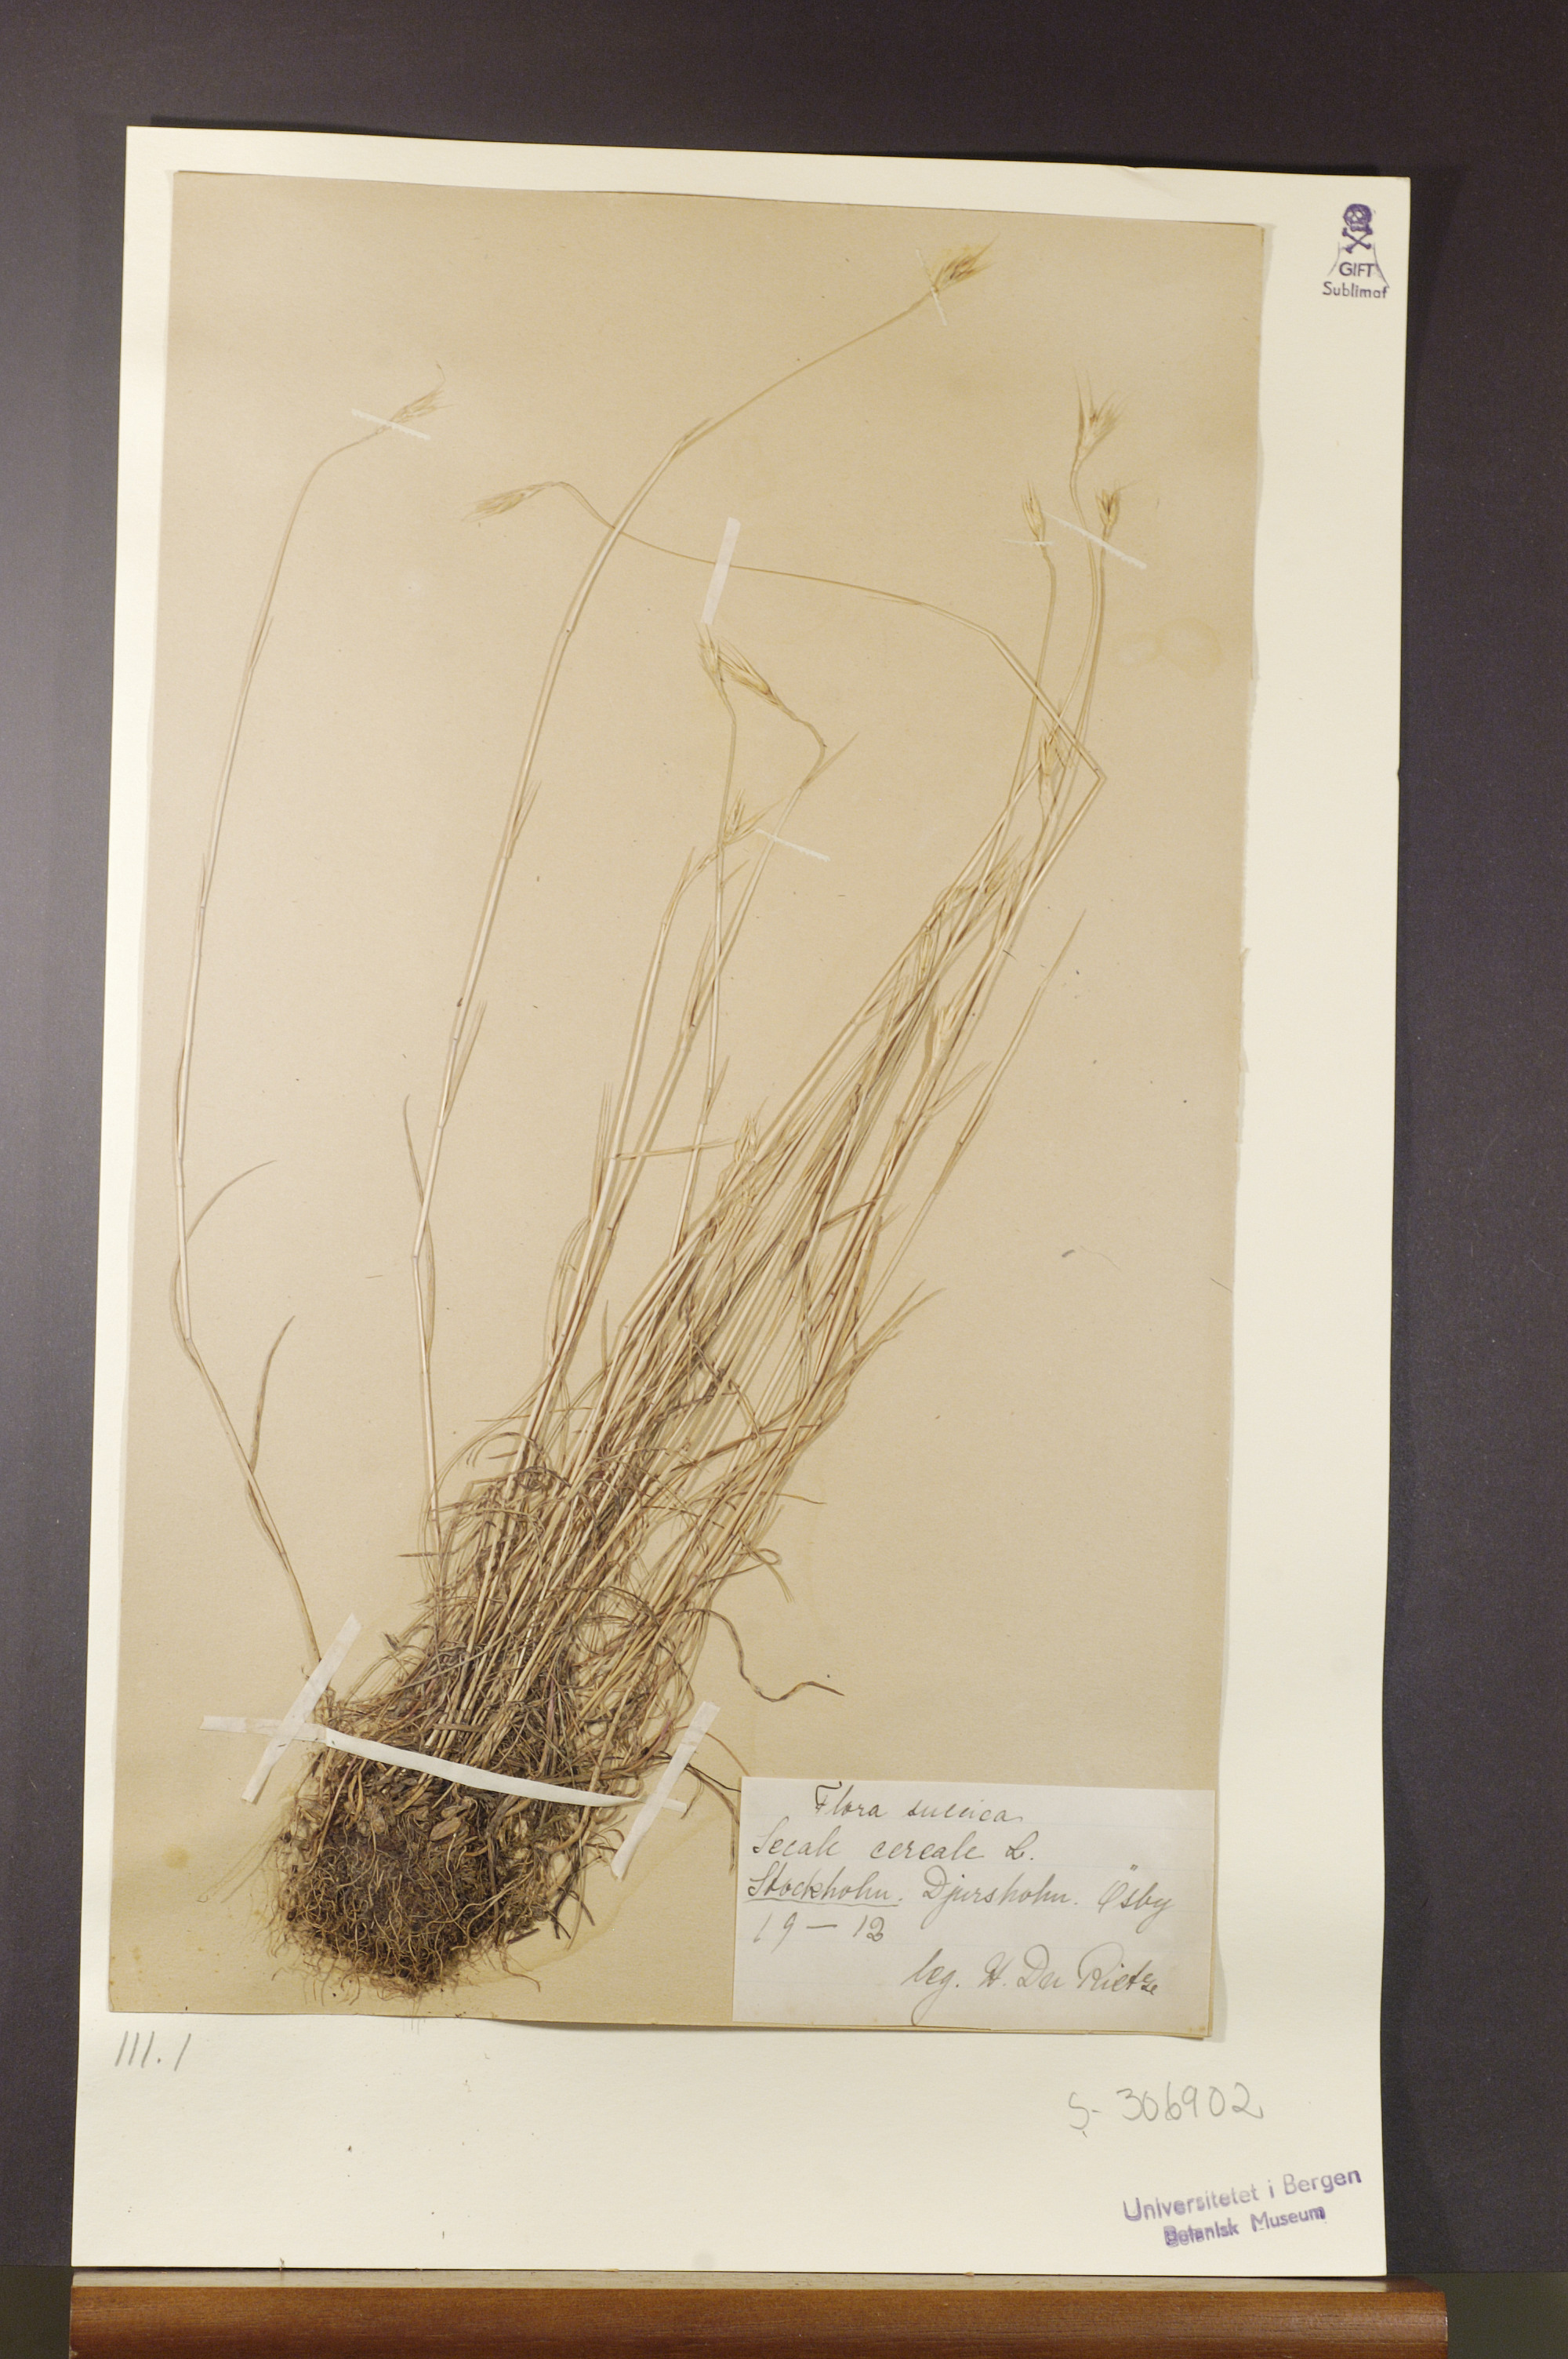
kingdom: Plantae
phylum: Tracheophyta
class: Liliopsida
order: Poales
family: Poaceae
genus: Secale
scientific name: Secale cereale
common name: Rye
